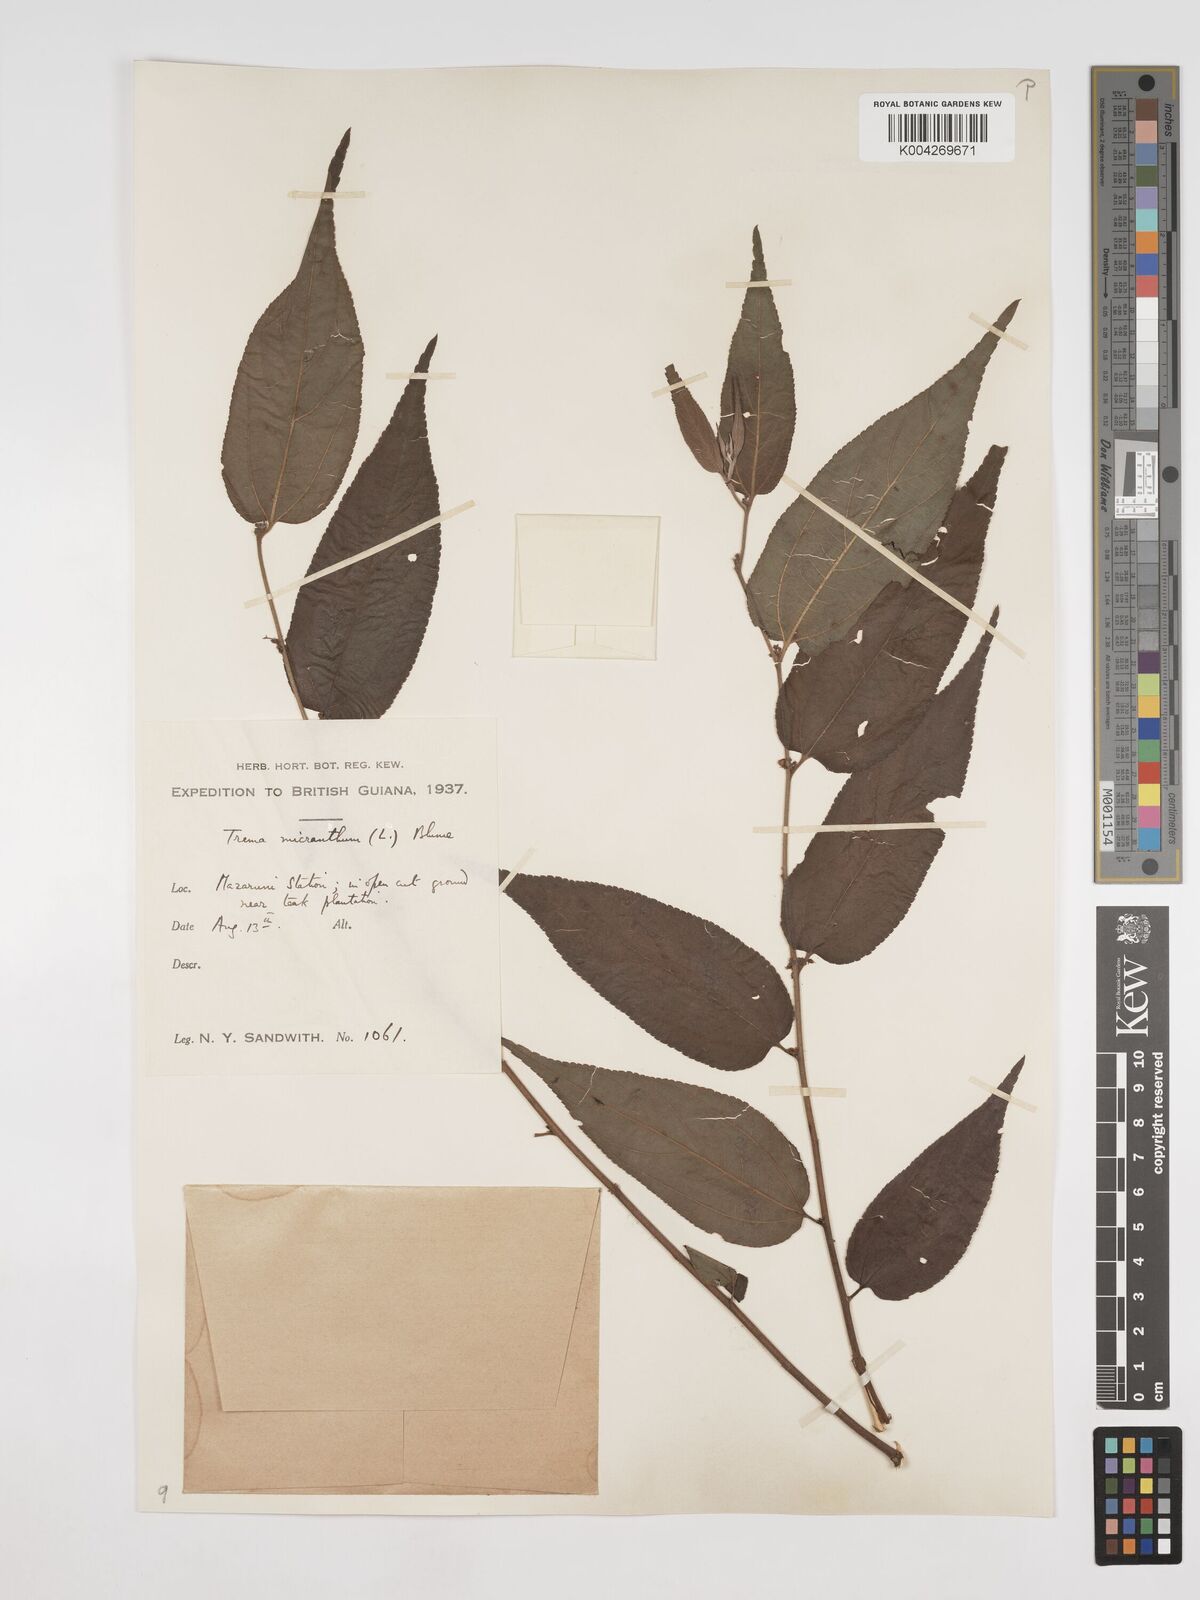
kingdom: Plantae
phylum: Tracheophyta
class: Magnoliopsida
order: Rosales
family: Cannabaceae
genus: Trema
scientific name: Trema micranthum
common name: Jamaican nettletree
